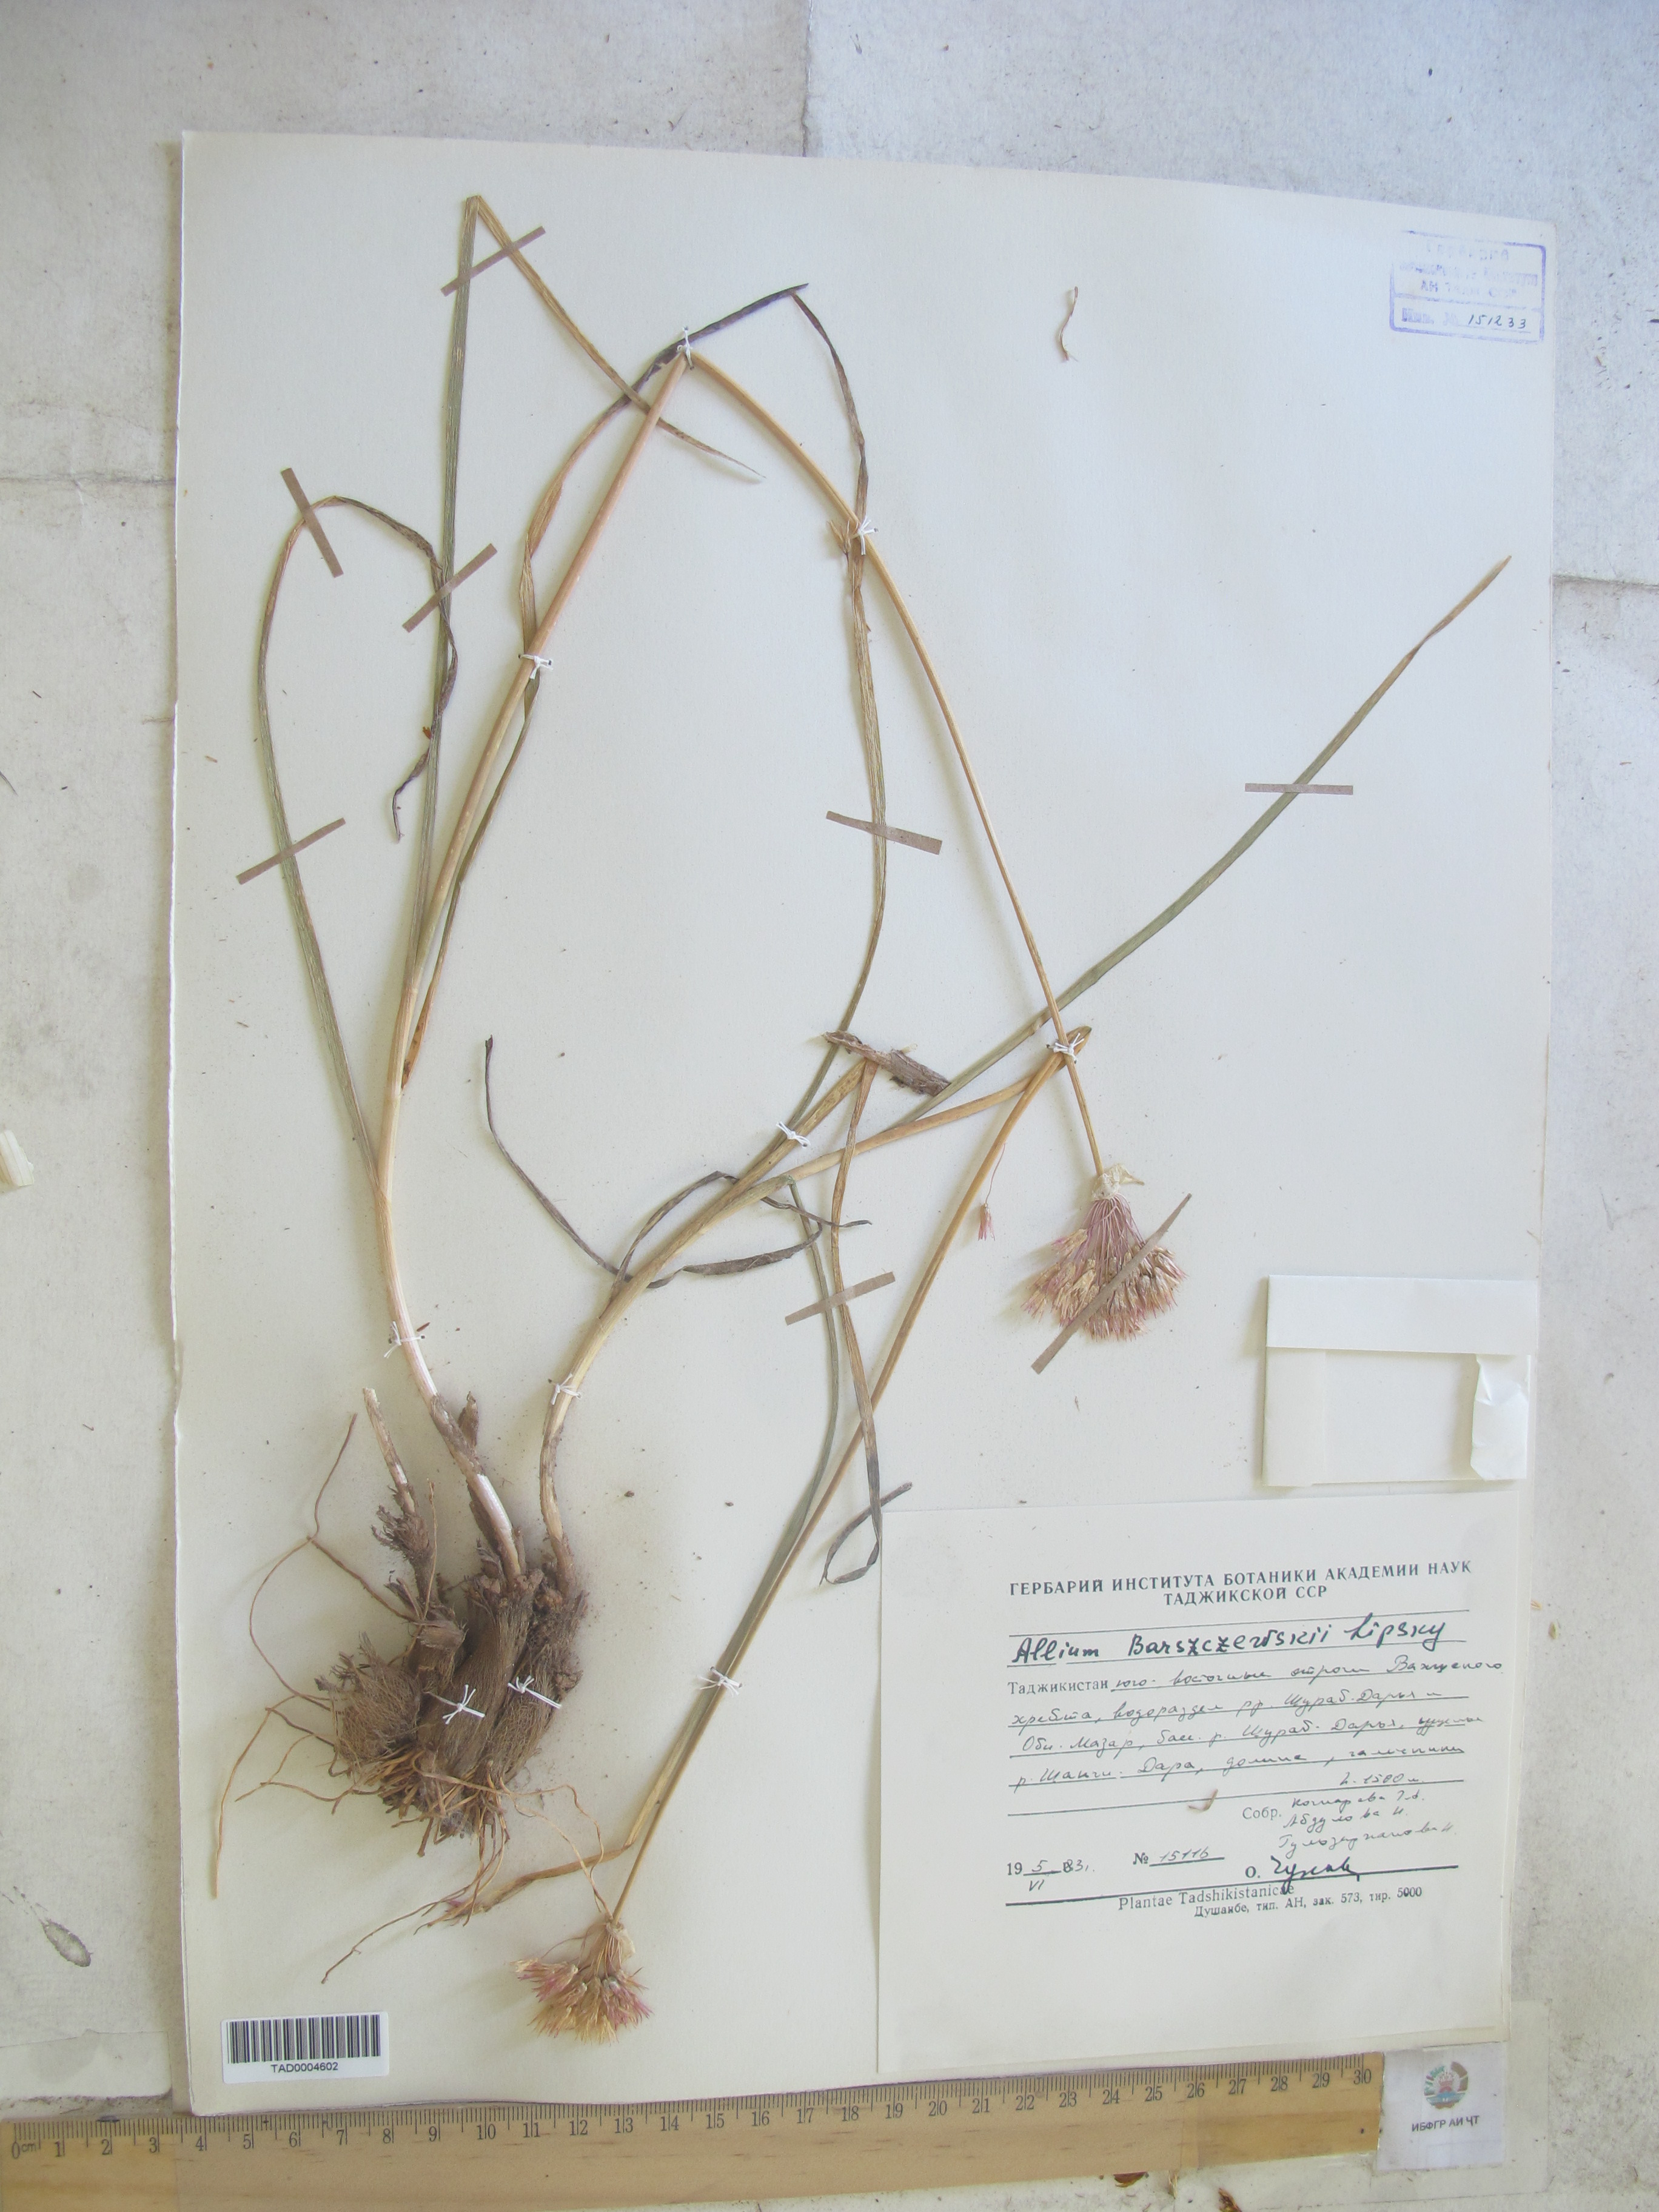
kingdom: Plantae
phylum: Tracheophyta
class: Liliopsida
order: Asparagales
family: Amaryllidaceae
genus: Allium
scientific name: Allium barsczewskii
